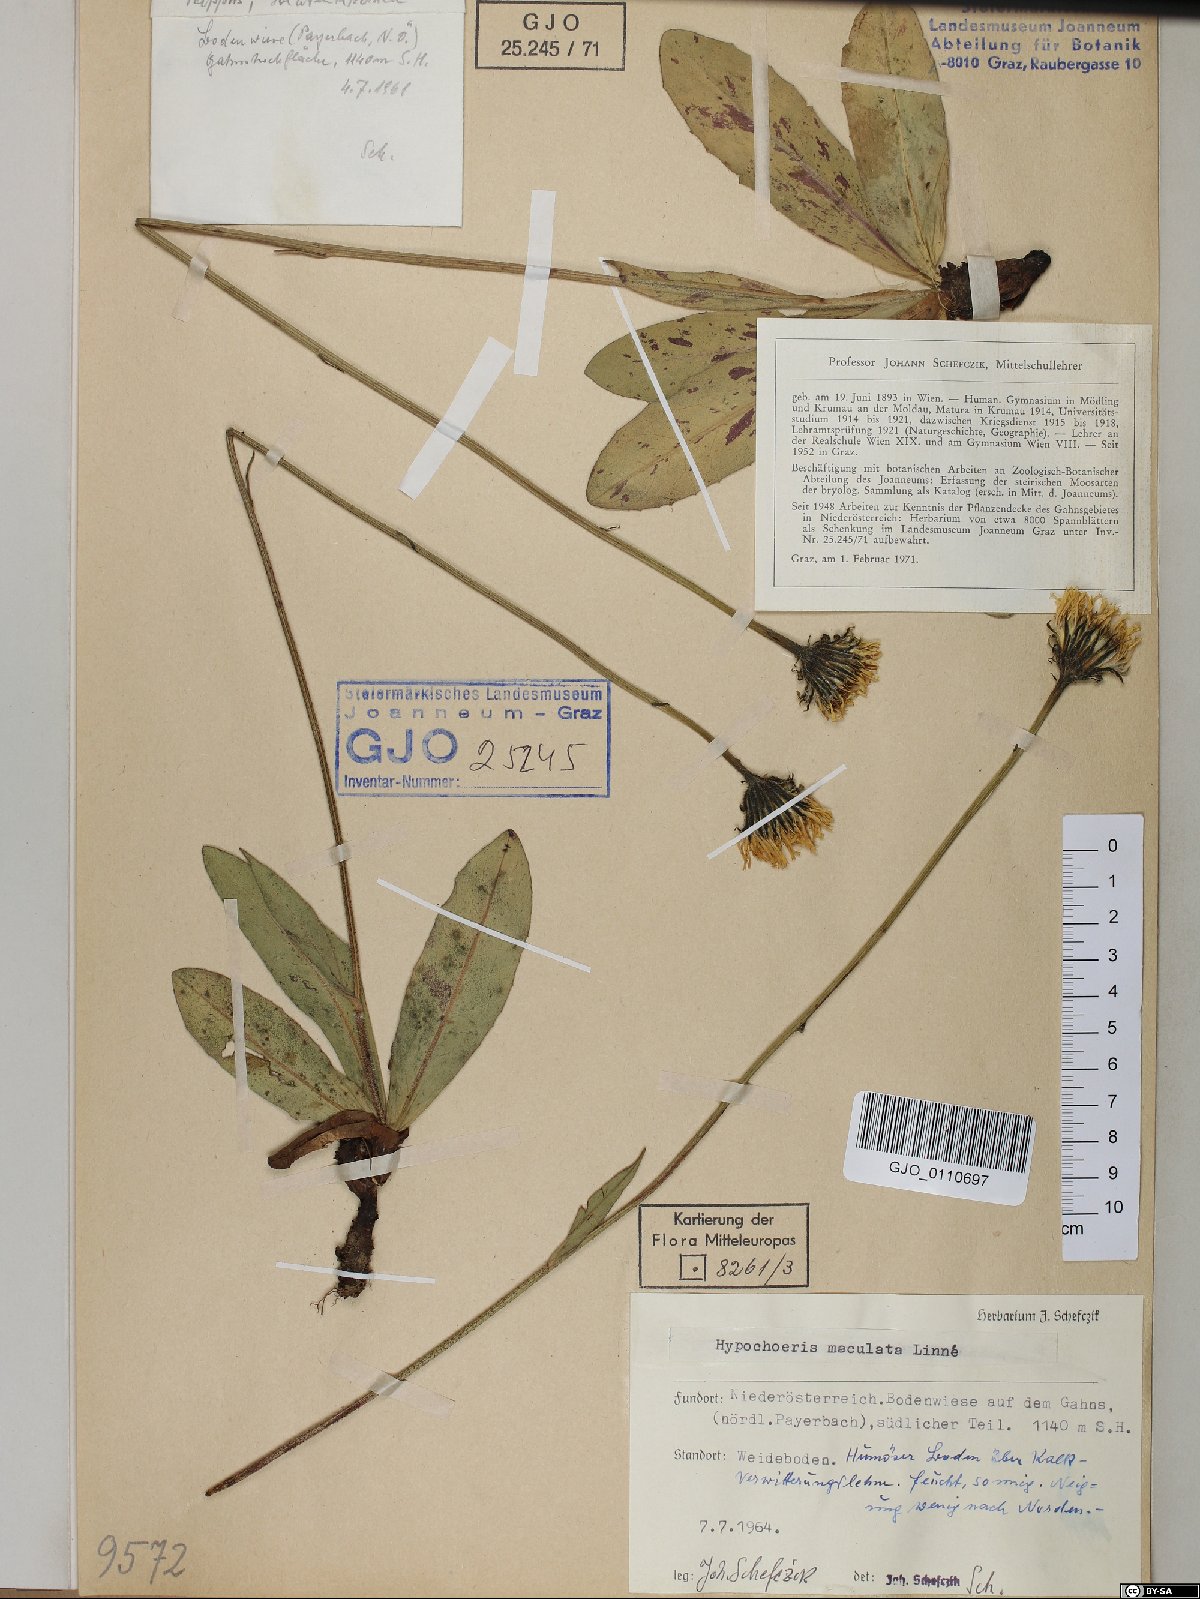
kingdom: Plantae
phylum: Tracheophyta
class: Magnoliopsida
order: Asterales
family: Asteraceae
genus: Trommsdorffia
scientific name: Trommsdorffia maculata
